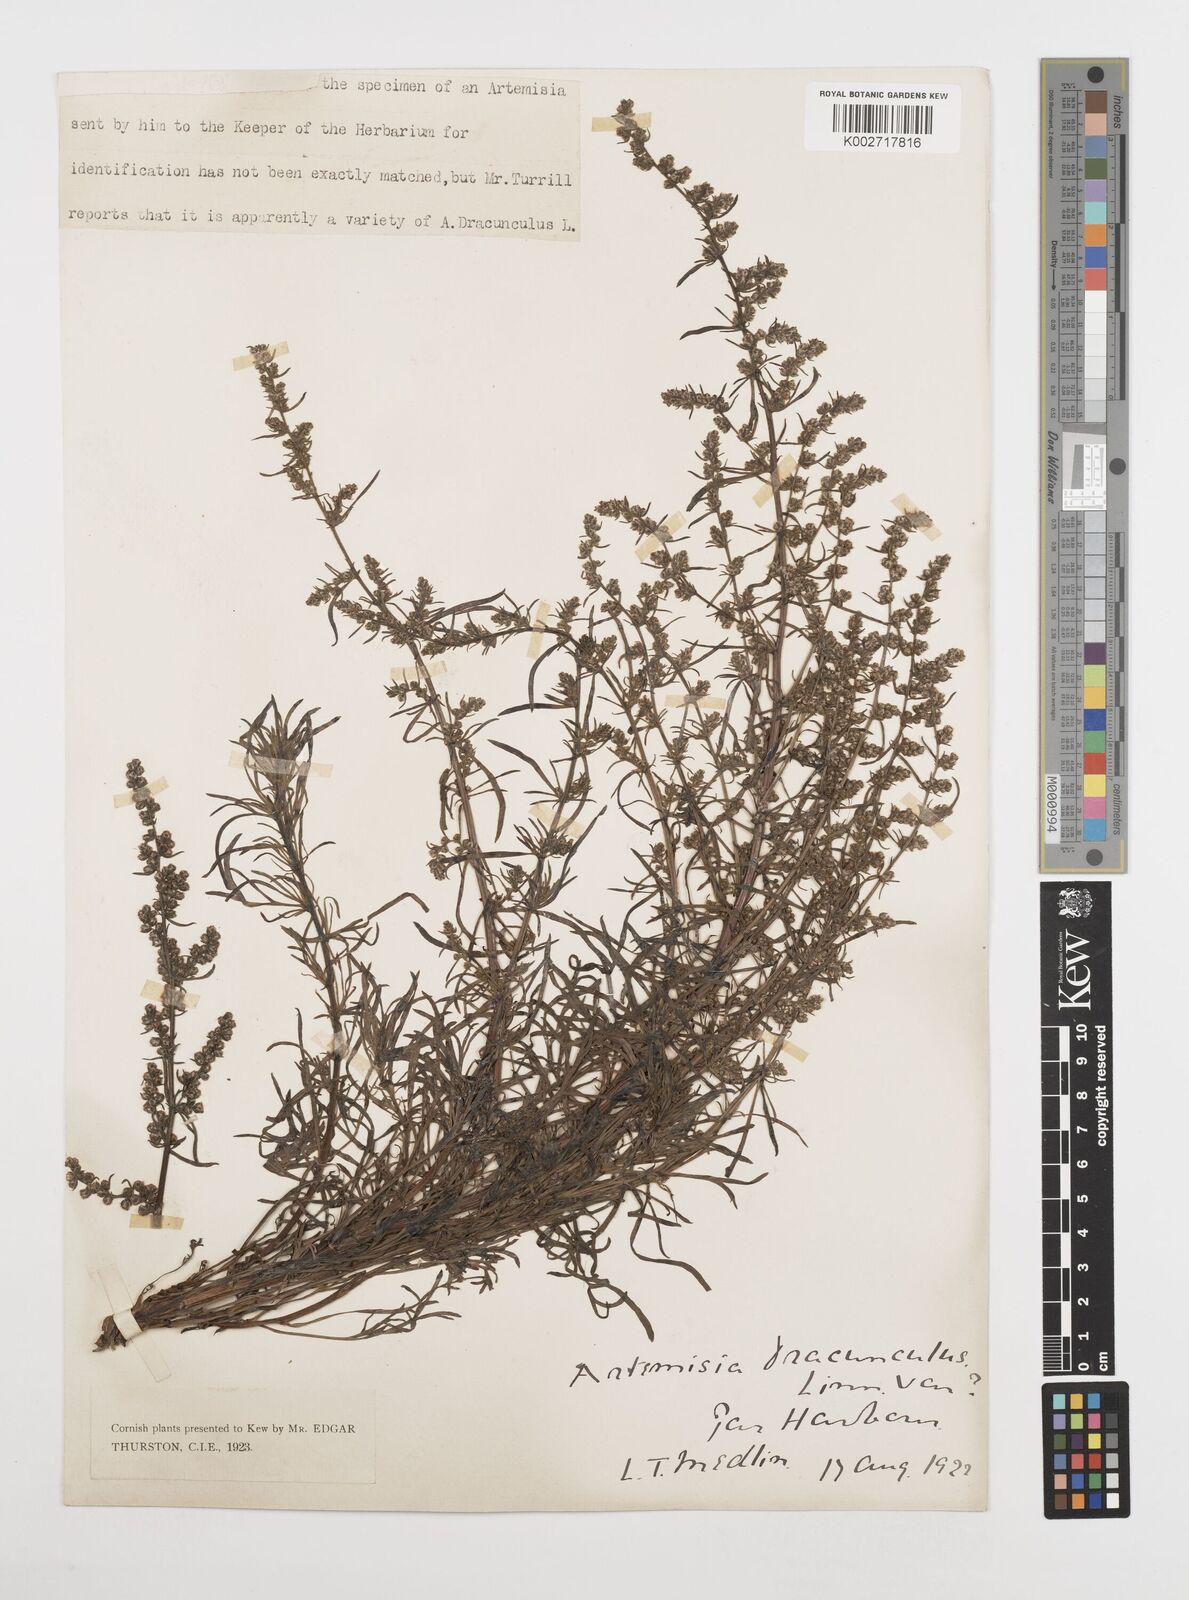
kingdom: Plantae
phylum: Tracheophyta
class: Magnoliopsida
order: Asterales
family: Asteraceae
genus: Artemisia
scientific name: Artemisia dracunculus
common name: Tarragon
